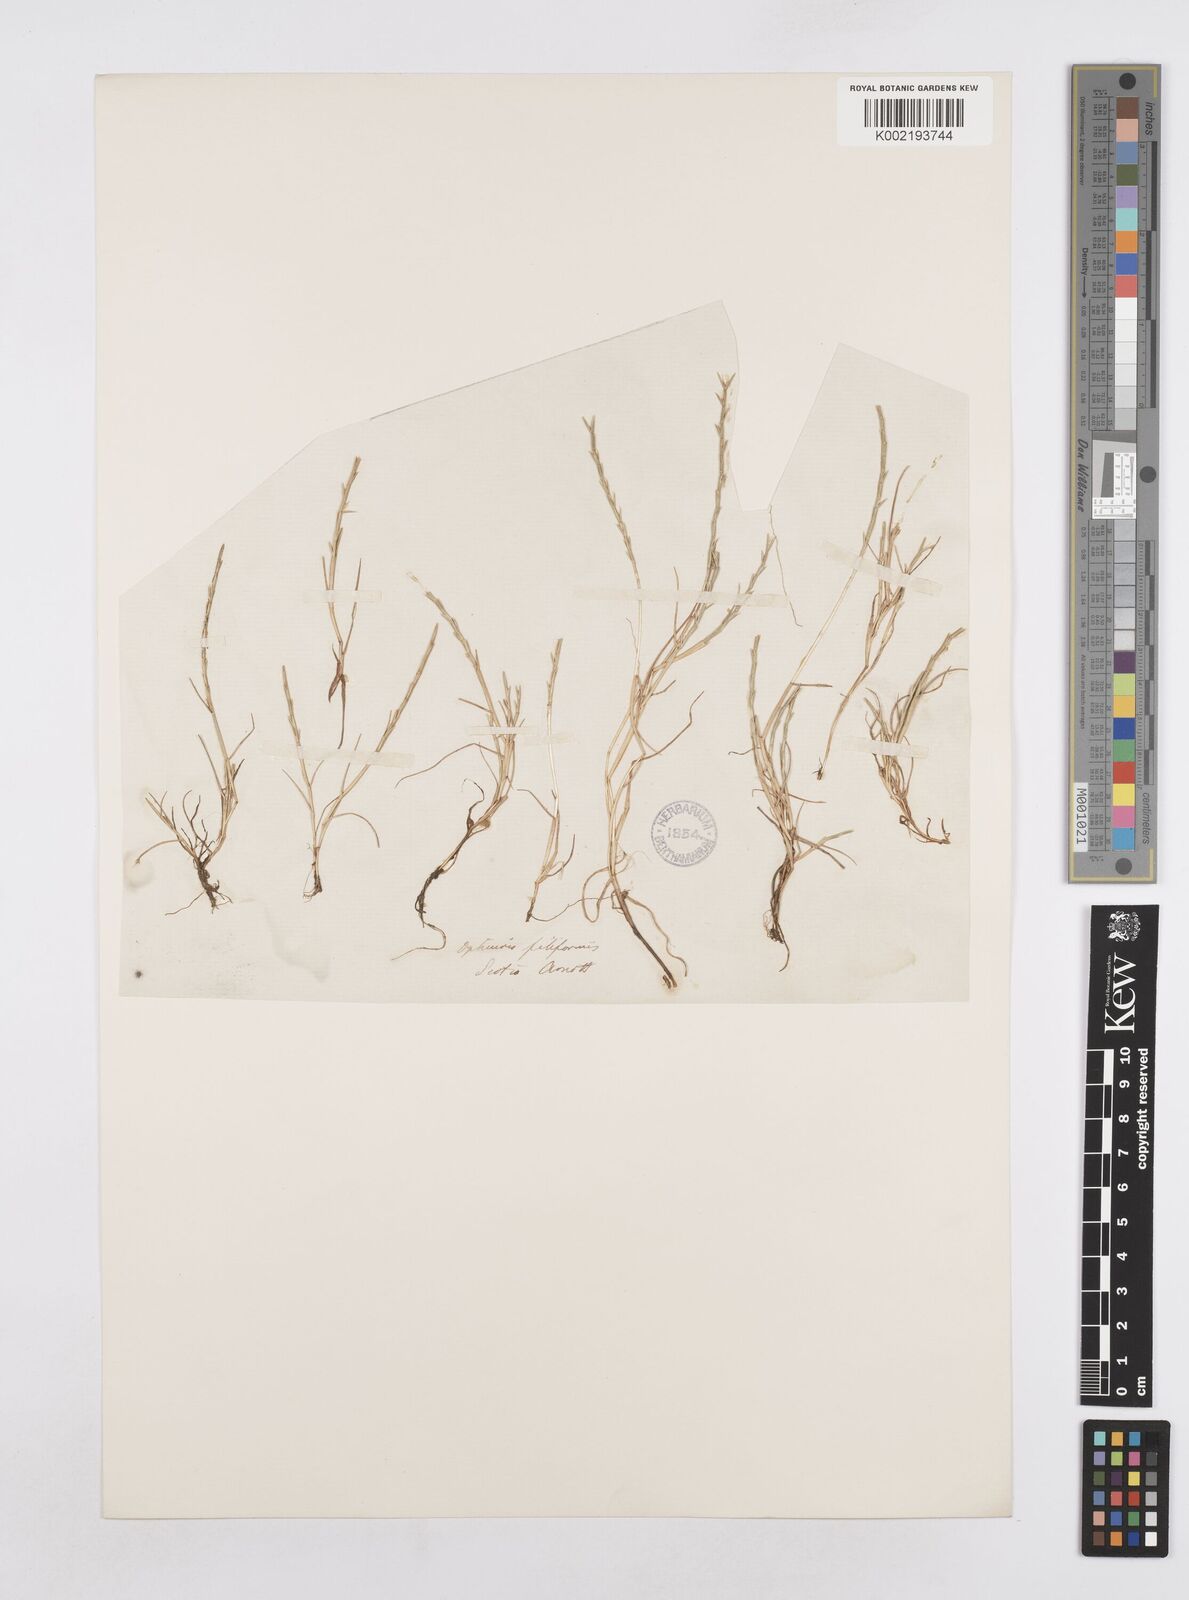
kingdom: Plantae
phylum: Tracheophyta
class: Liliopsida
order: Poales
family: Poaceae
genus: Parapholis
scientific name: Parapholis strigosa
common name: Hard-grass
